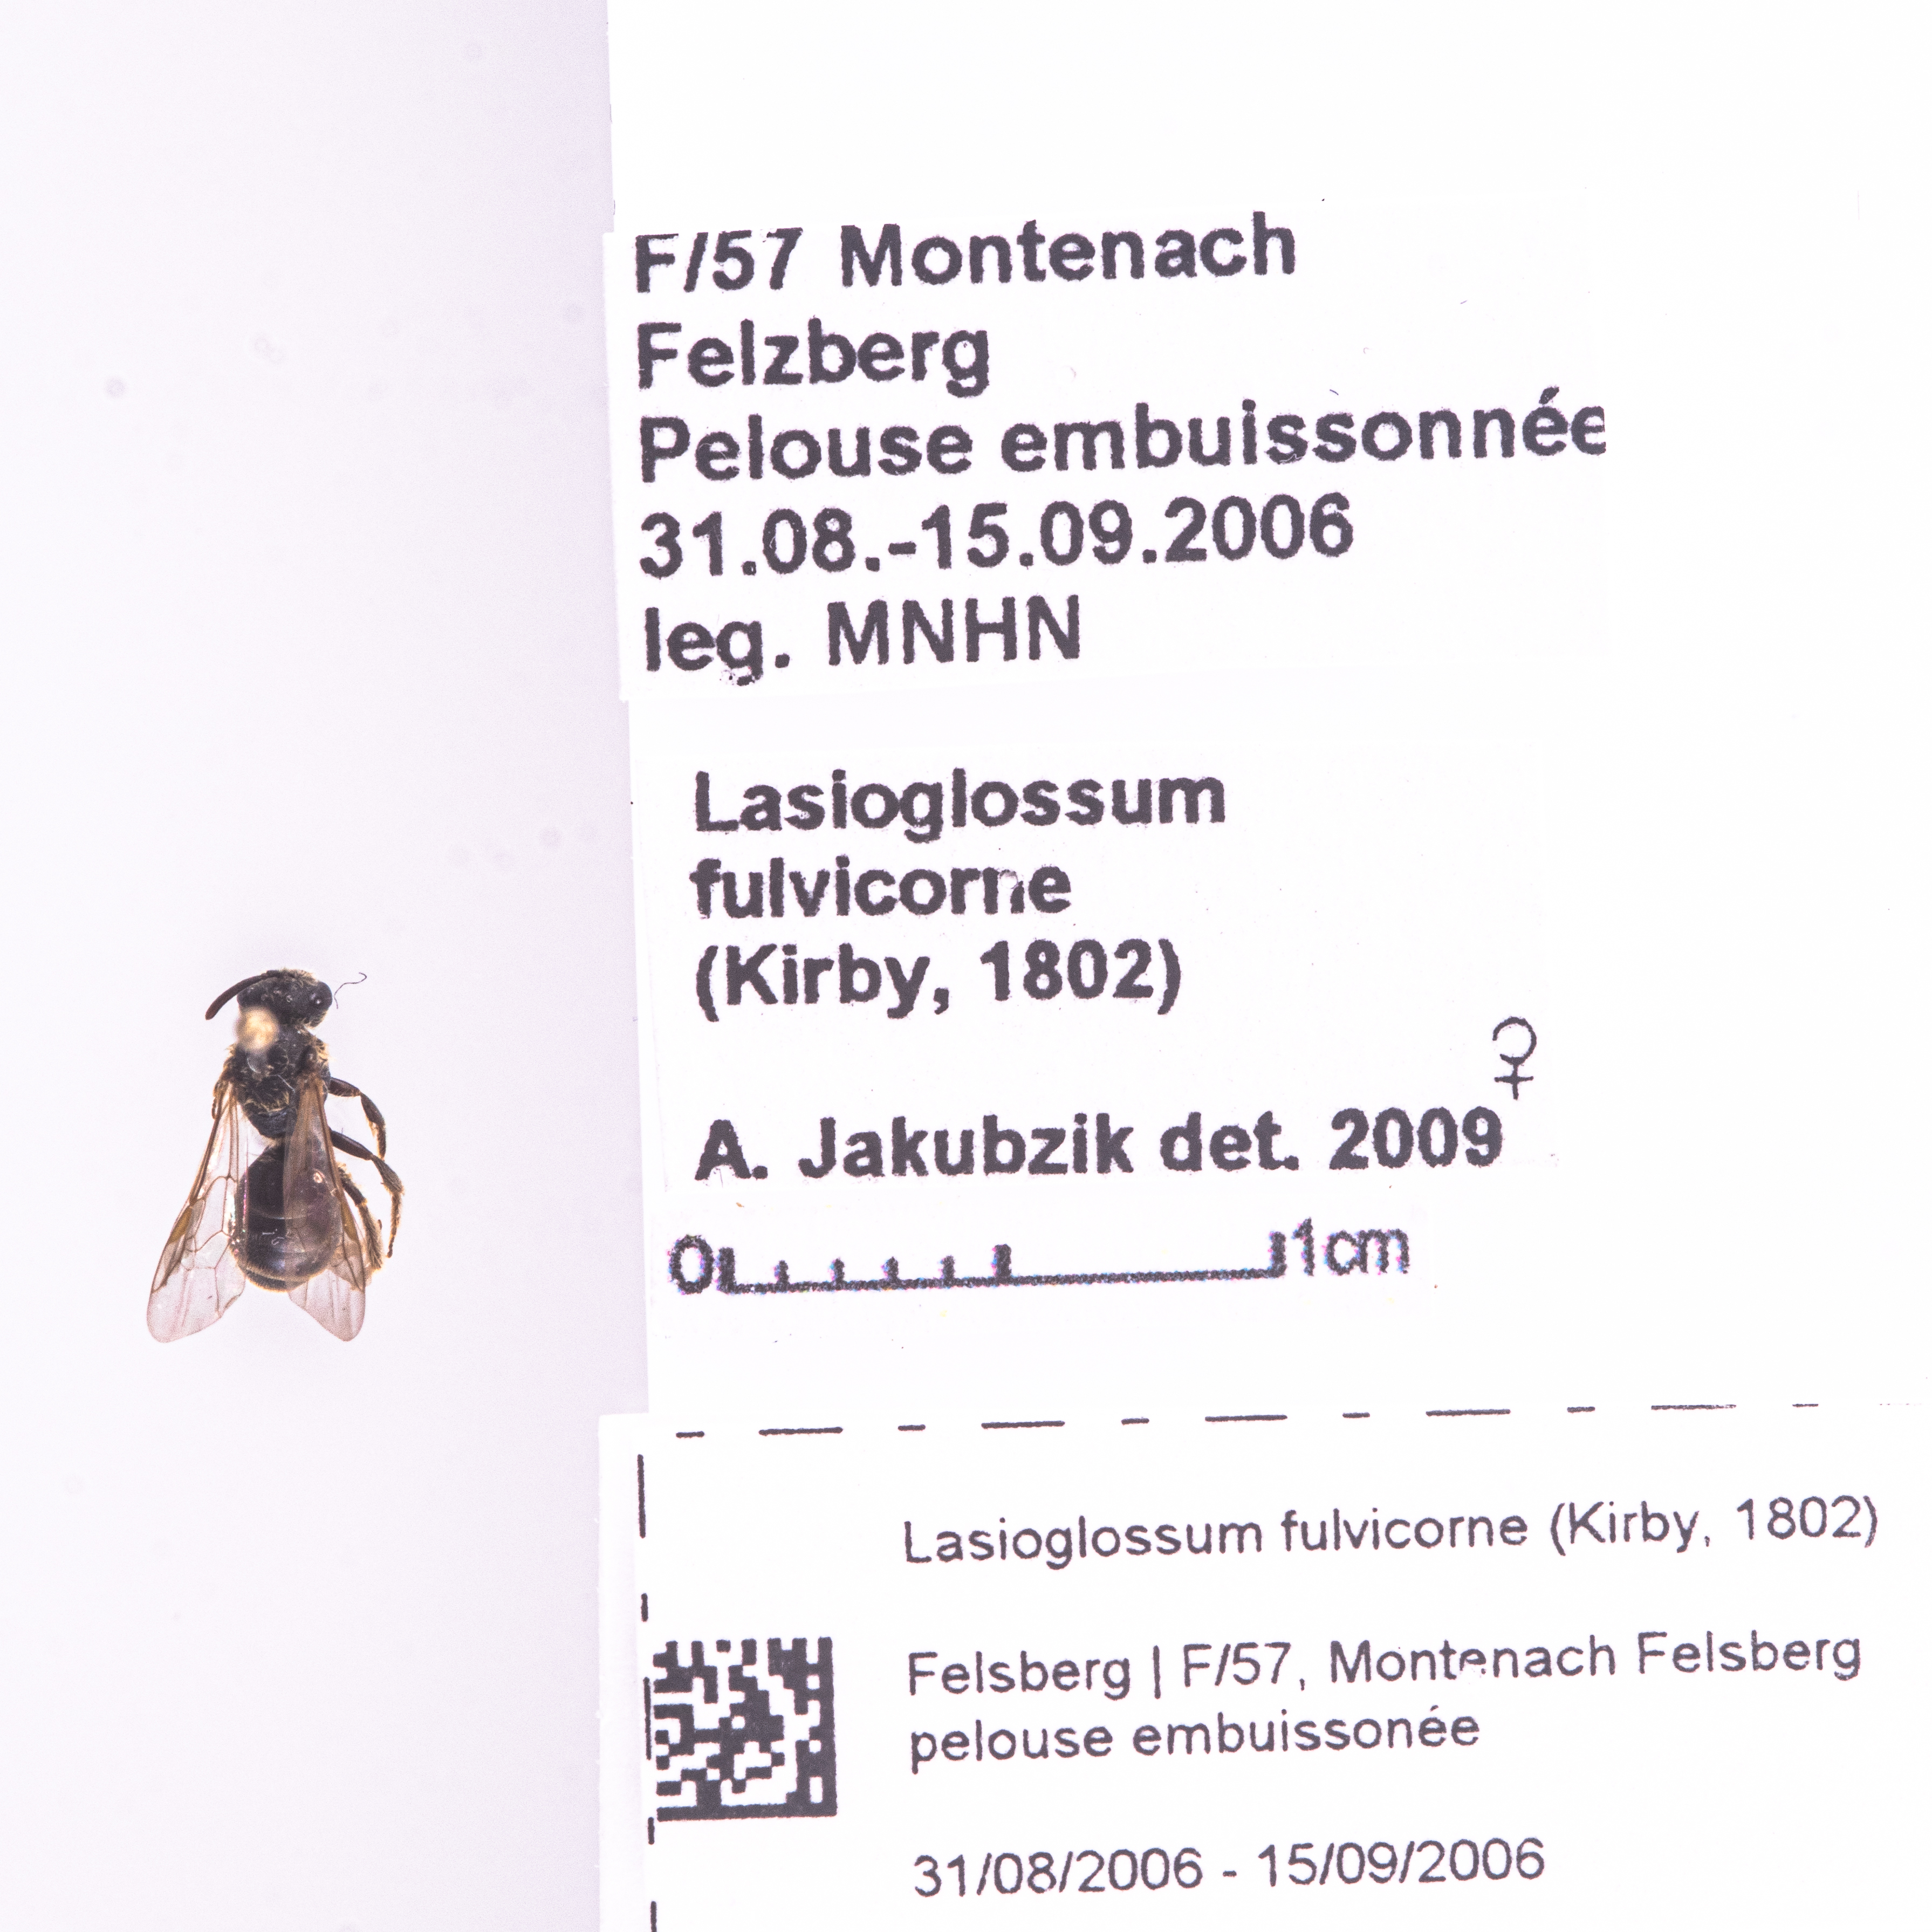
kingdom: Animalia
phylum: Arthropoda
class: Insecta
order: Hymenoptera
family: Halictidae
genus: Lasioglossum
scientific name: Lasioglossum fulvicorne
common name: Chalk furrow bee
